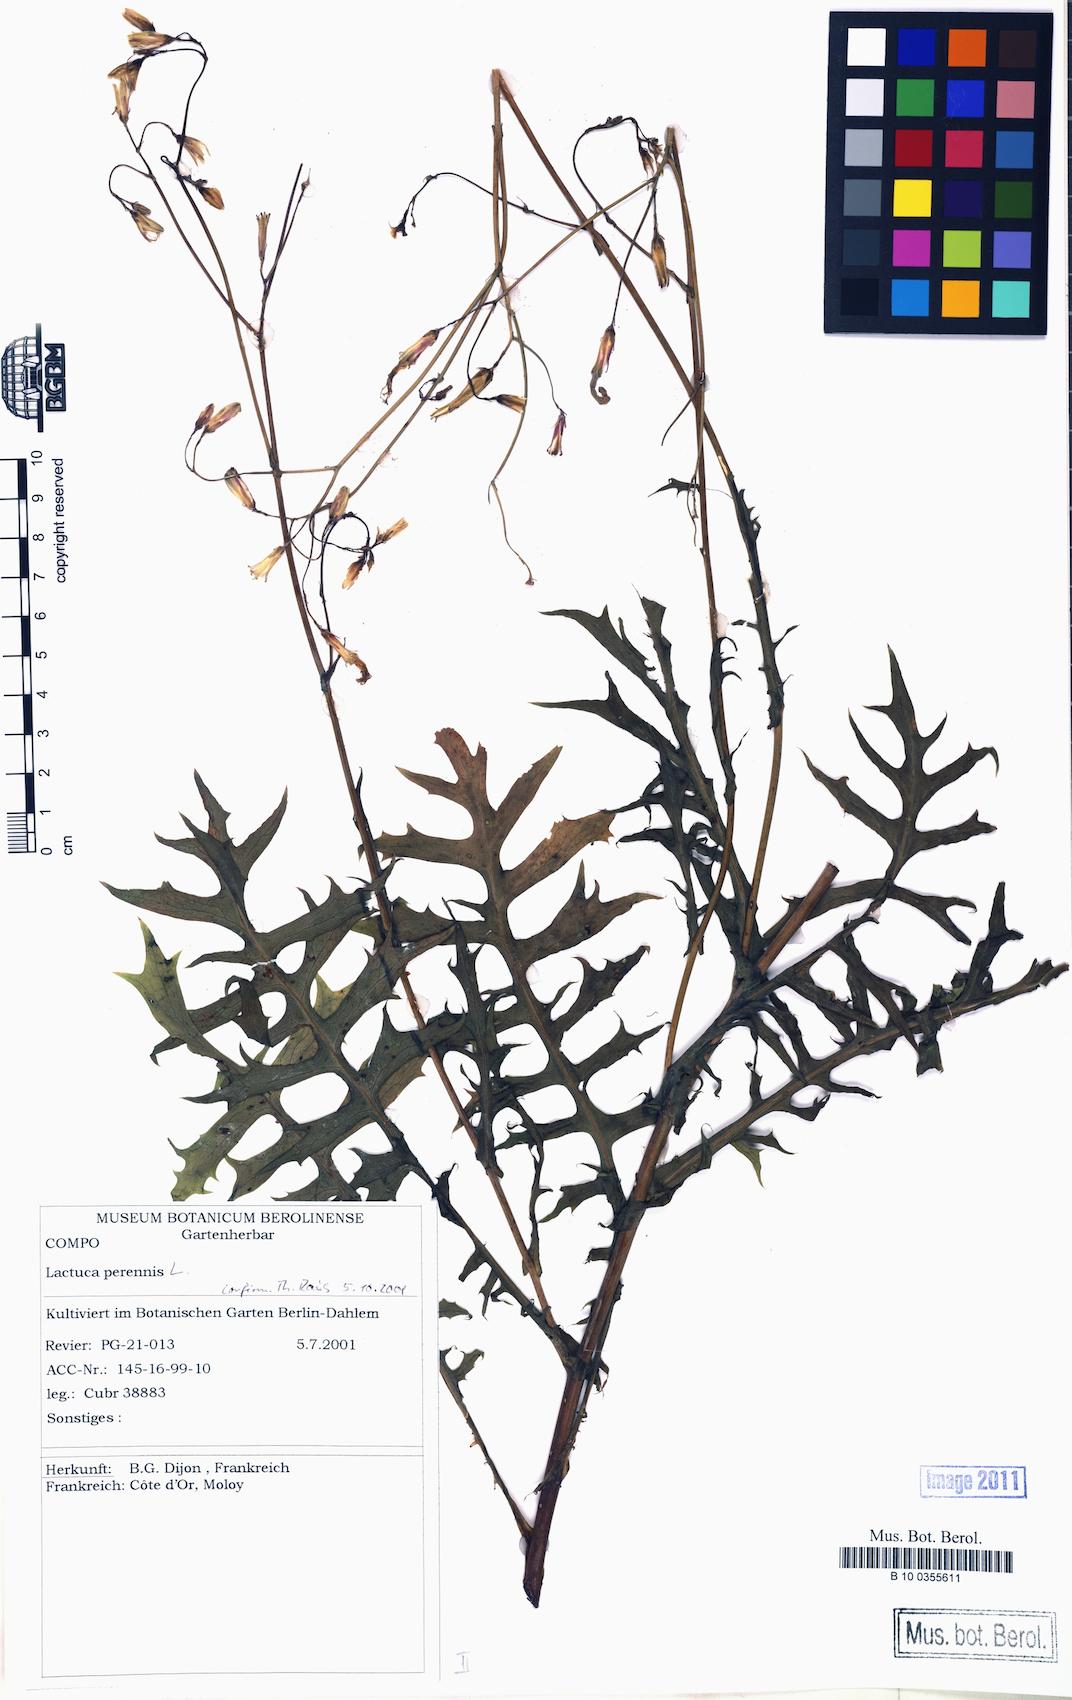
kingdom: Plantae
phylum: Tracheophyta
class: Magnoliopsida
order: Asterales
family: Asteraceae
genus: Lactuca
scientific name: Lactuca perennis
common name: Mountain lettuce
